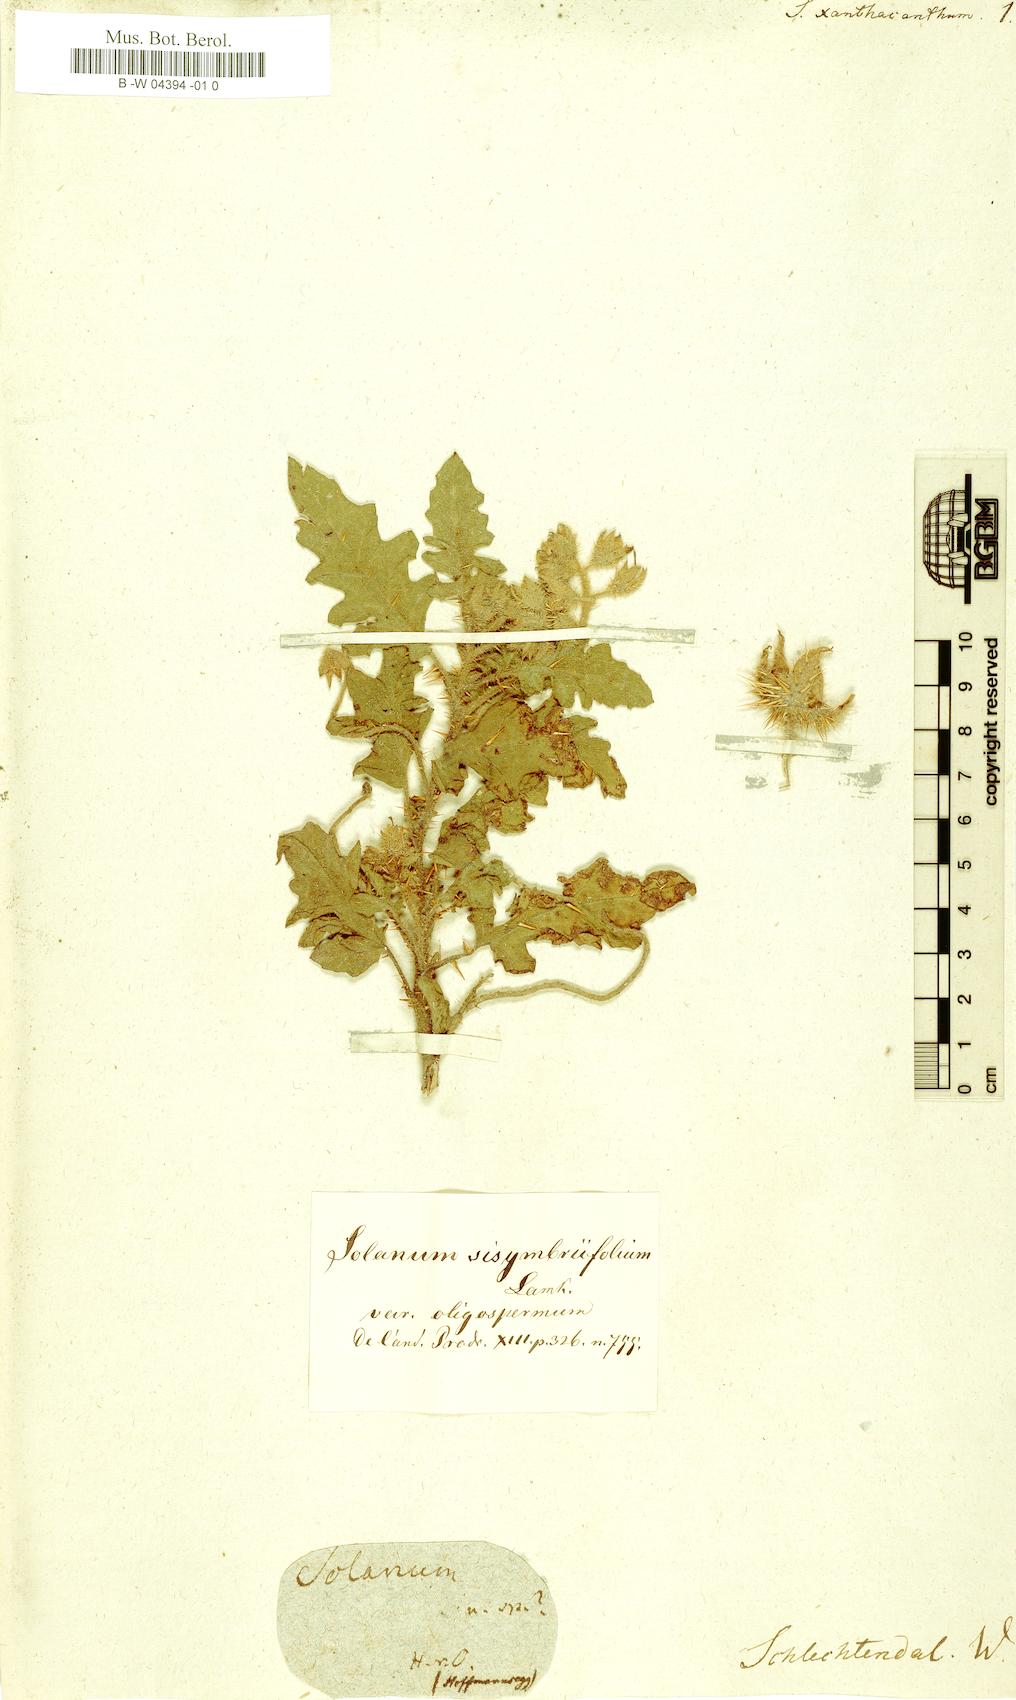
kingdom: Plantae
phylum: Tracheophyta
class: Magnoliopsida
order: Solanales
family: Solanaceae
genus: Solanum
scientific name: Solanum sisymbriifolium
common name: Red buffalo-bur
